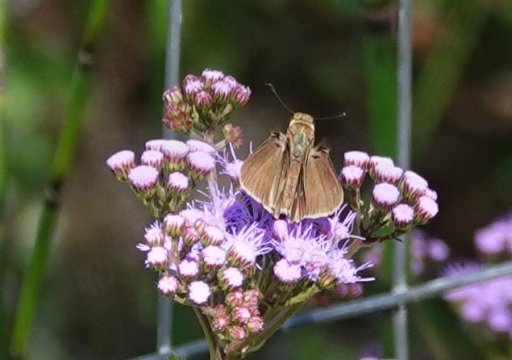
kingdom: Animalia
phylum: Arthropoda
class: Insecta
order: Lepidoptera
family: Hesperiidae
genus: Panoquina
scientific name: Panoquina ocola
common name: Ocola Skipper
